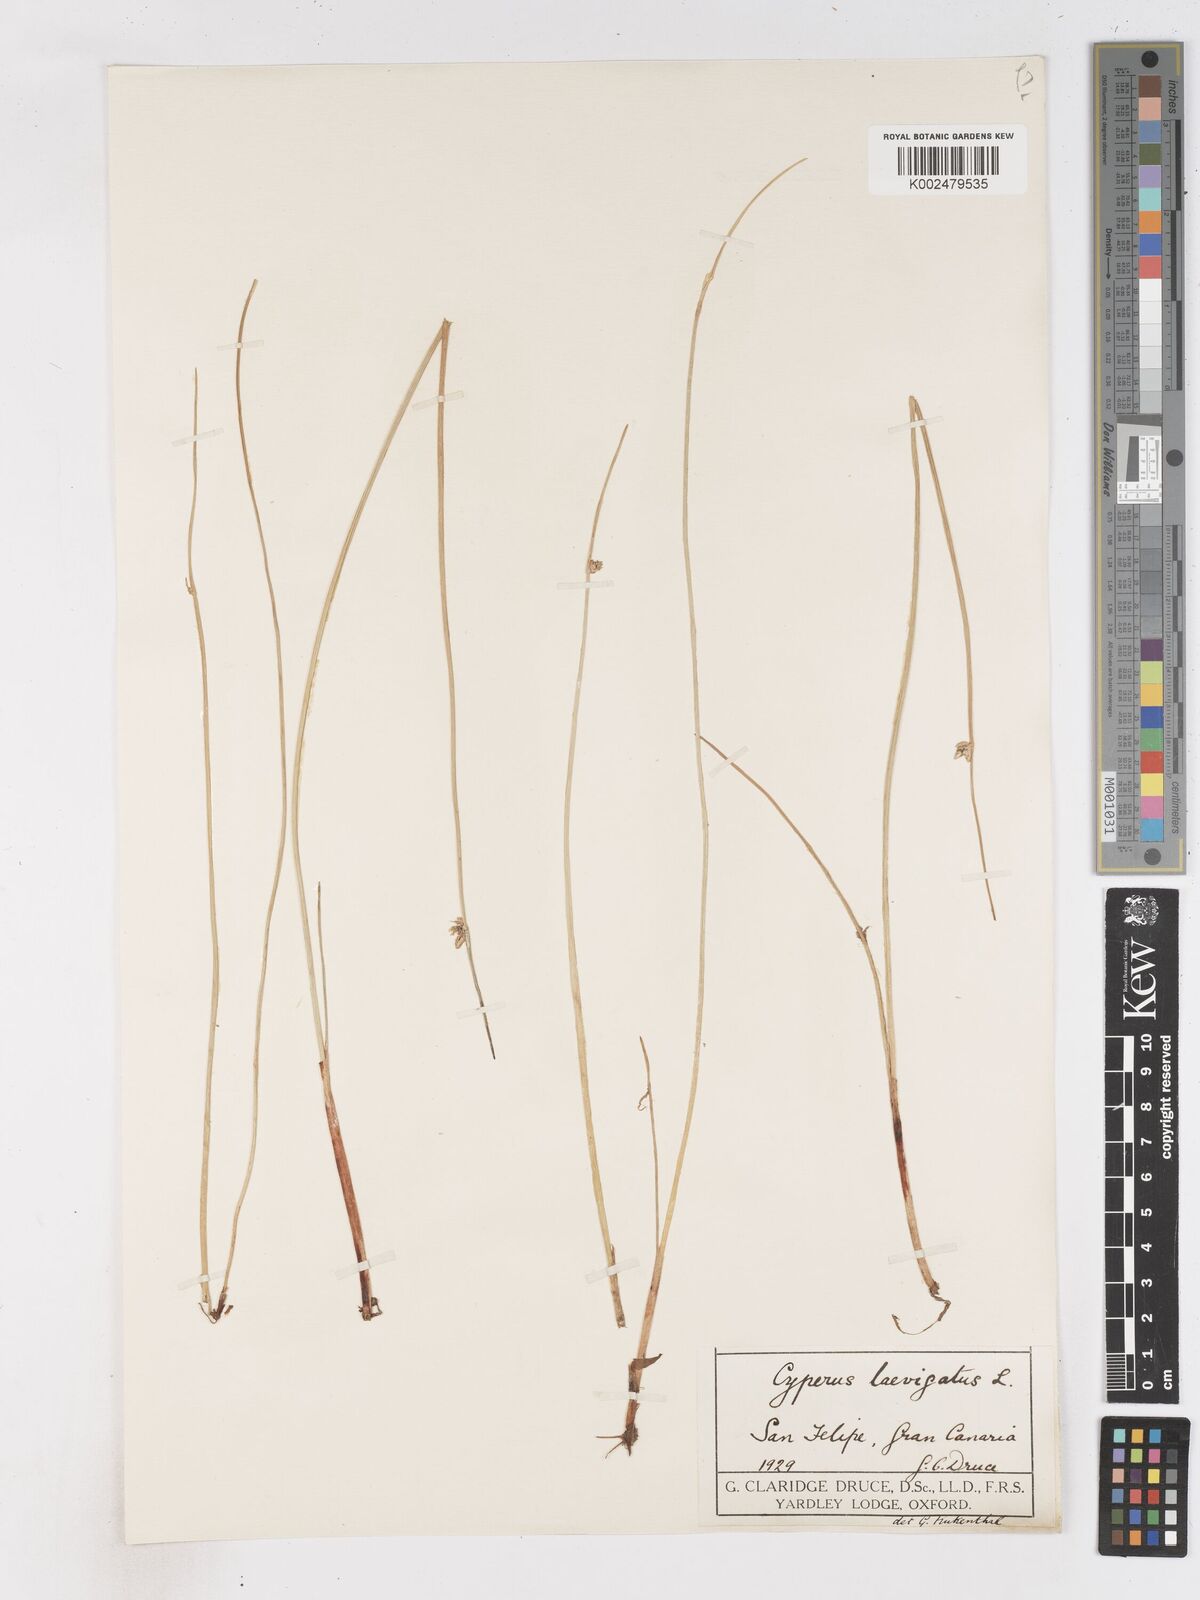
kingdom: Plantae
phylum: Tracheophyta
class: Liliopsida
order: Poales
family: Cyperaceae
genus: Cyperus
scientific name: Cyperus laevigatus
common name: Smooth flat sedge
